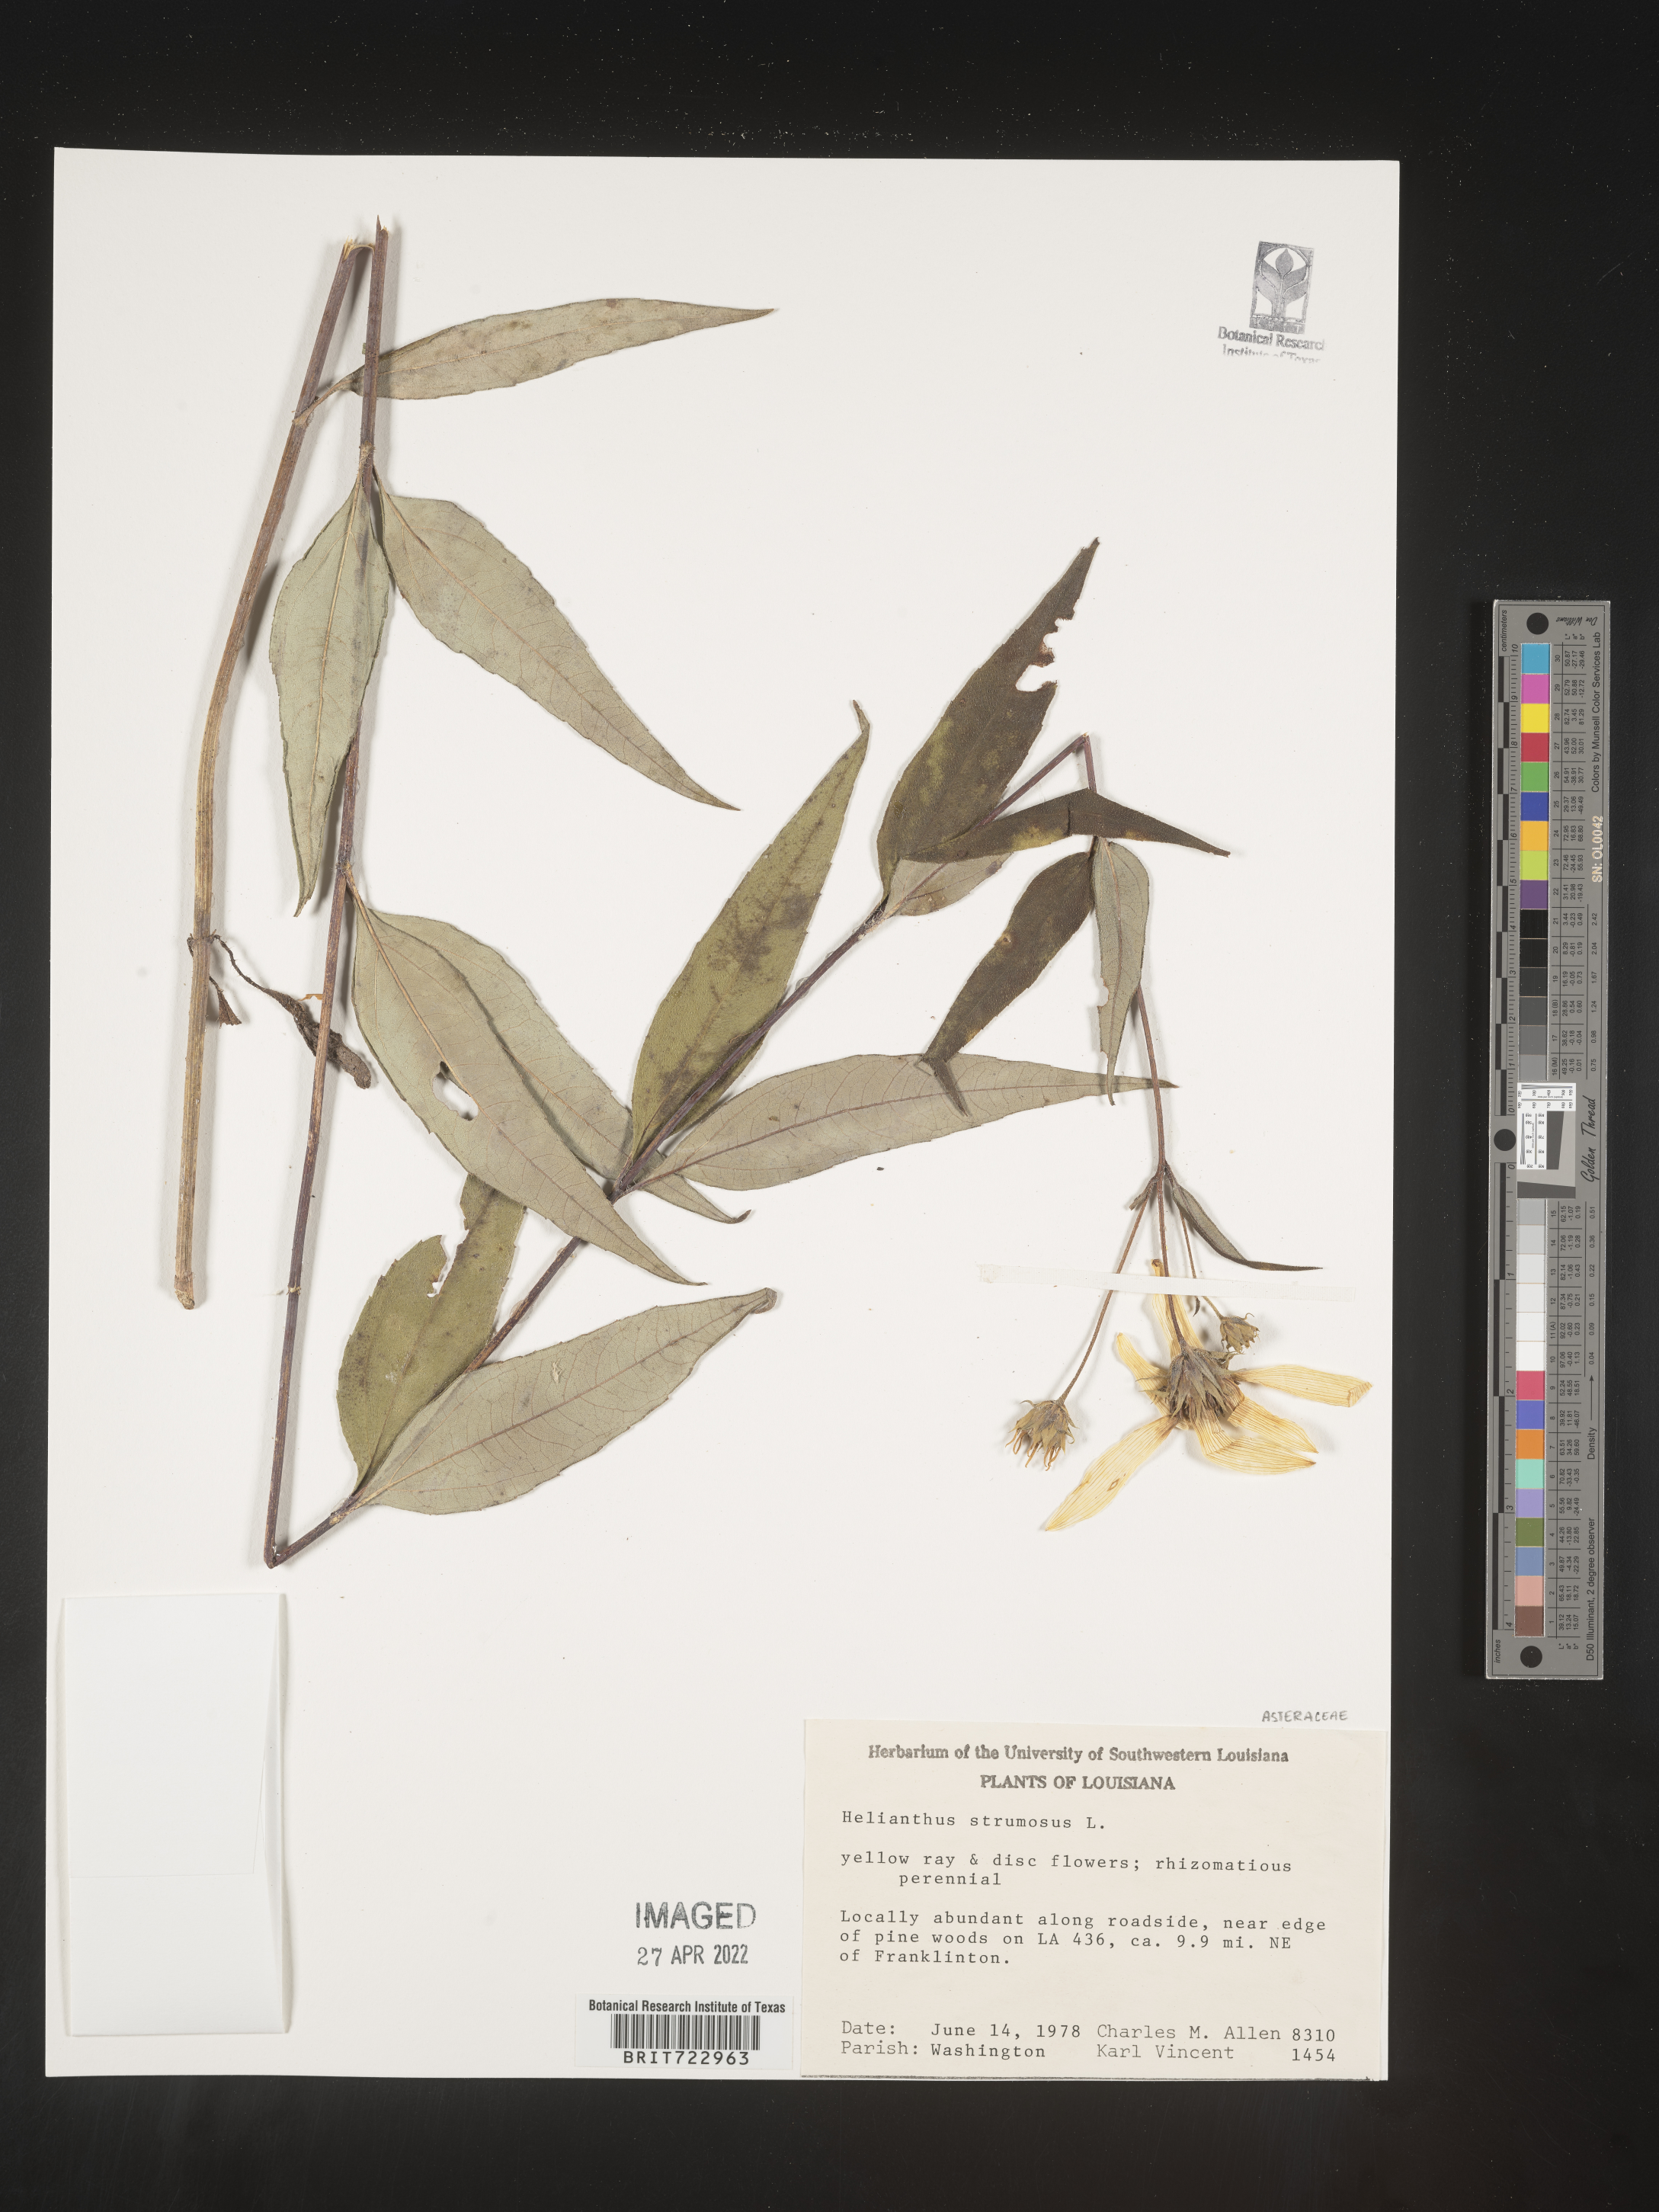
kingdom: Plantae
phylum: Tracheophyta
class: Magnoliopsida
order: Asterales
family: Asteraceae
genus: Helianthus
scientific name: Helianthus strumosus
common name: Pale-leaved sunflower
